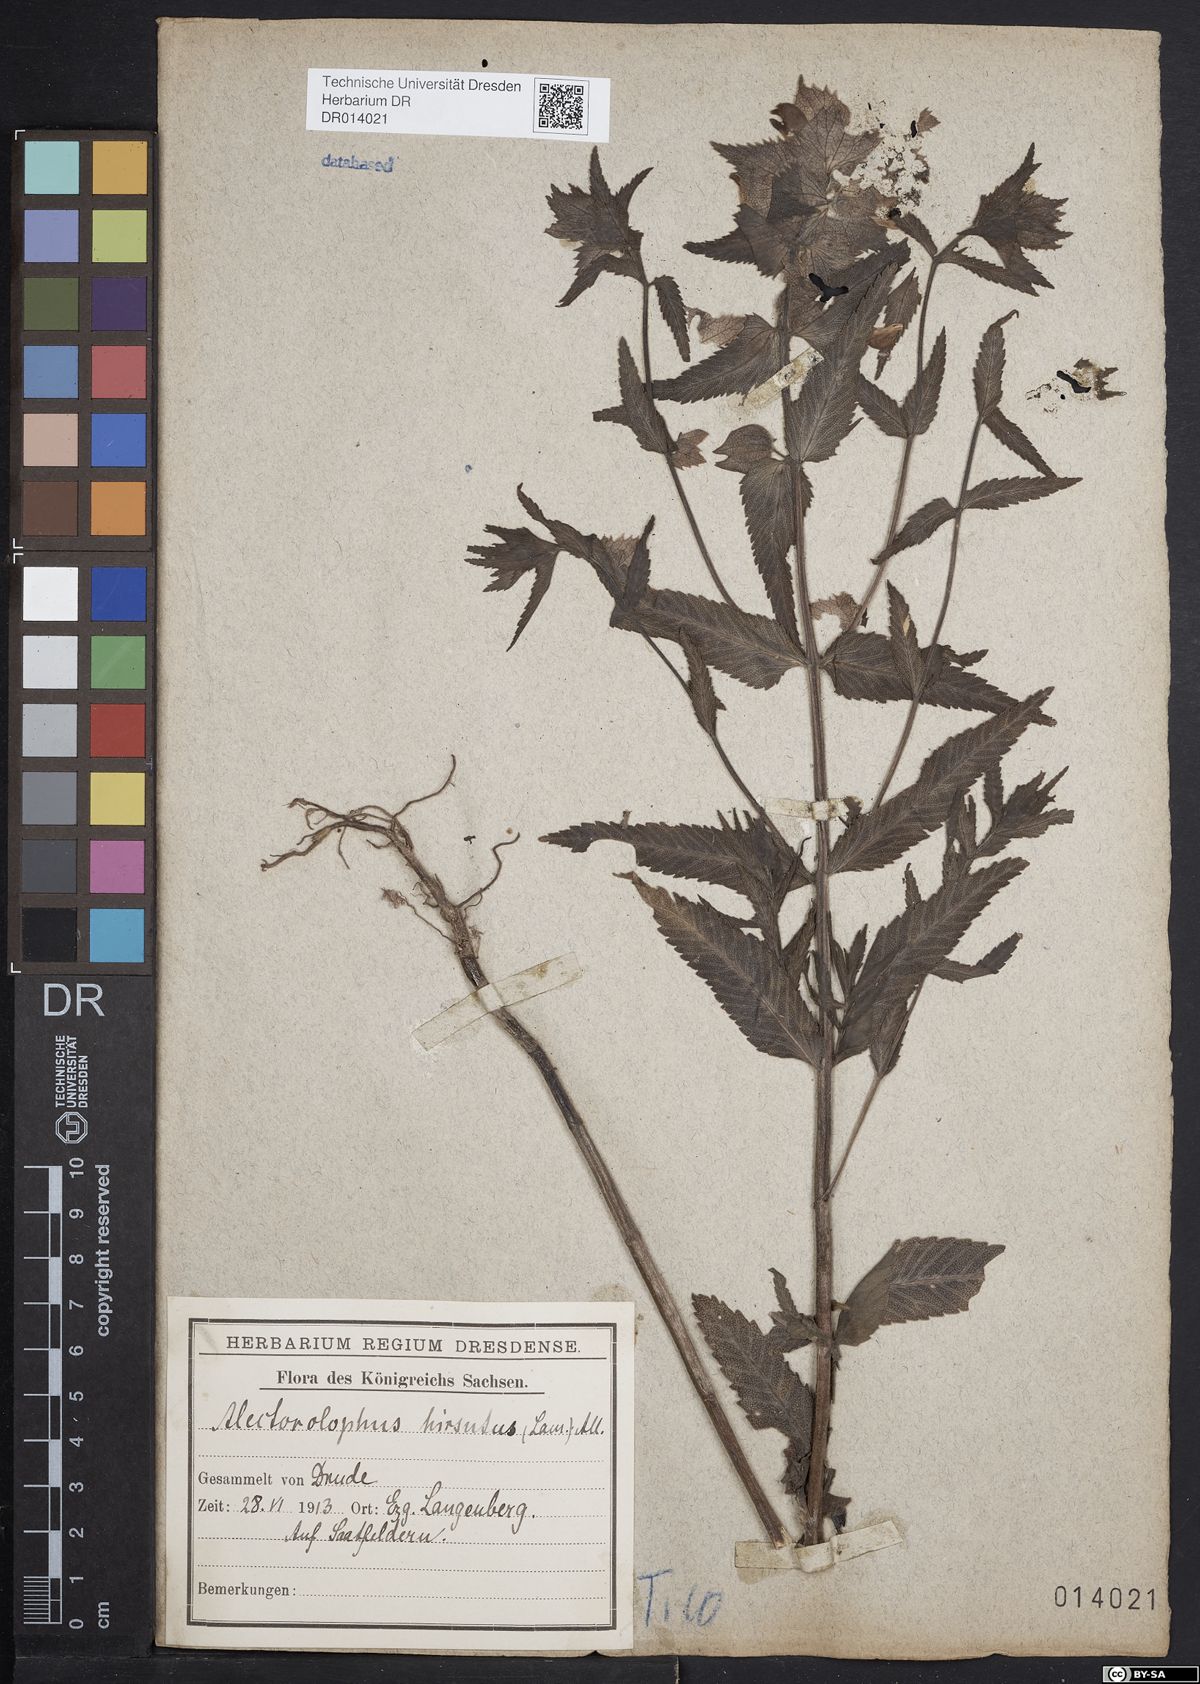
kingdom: Plantae
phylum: Tracheophyta
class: Magnoliopsida
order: Lamiales
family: Orobanchaceae
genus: Rhinanthus
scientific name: Rhinanthus alectorolophus
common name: Greater yellow-rattle
